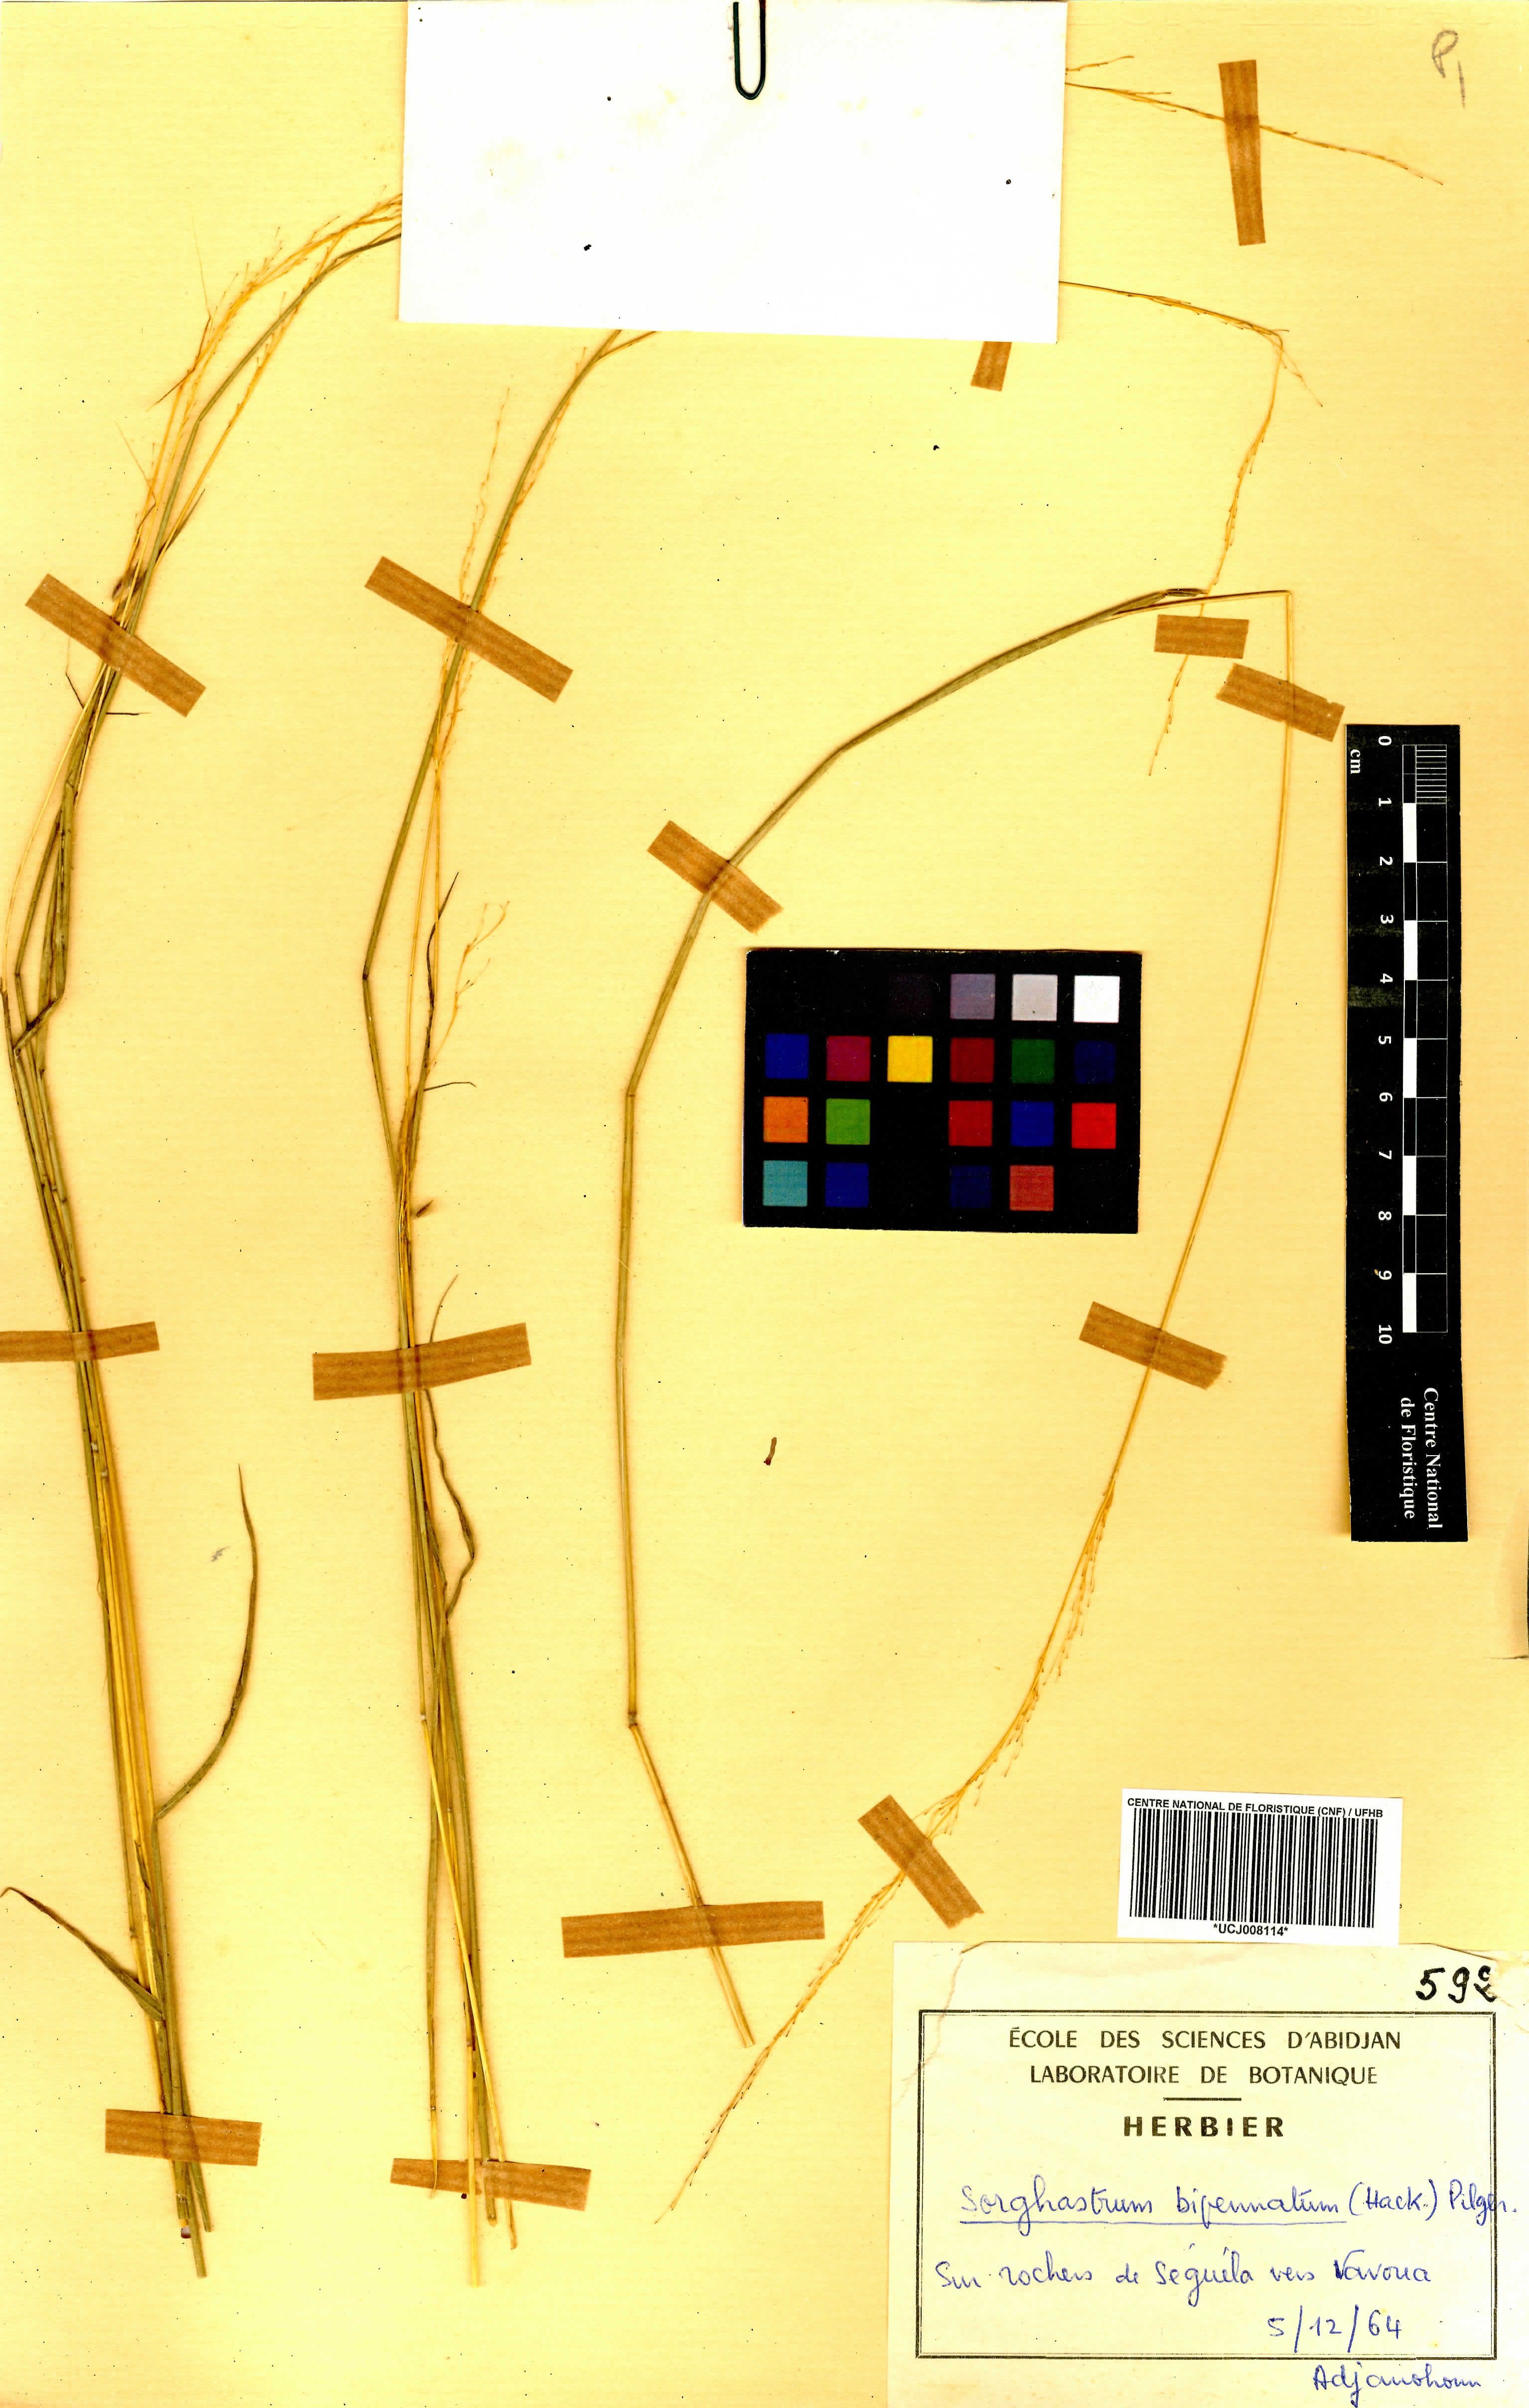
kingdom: Plantae
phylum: Tracheophyta
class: Liliopsida
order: Poales
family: Poaceae
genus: Sorghastrum
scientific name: Sorghastrum incompletum
